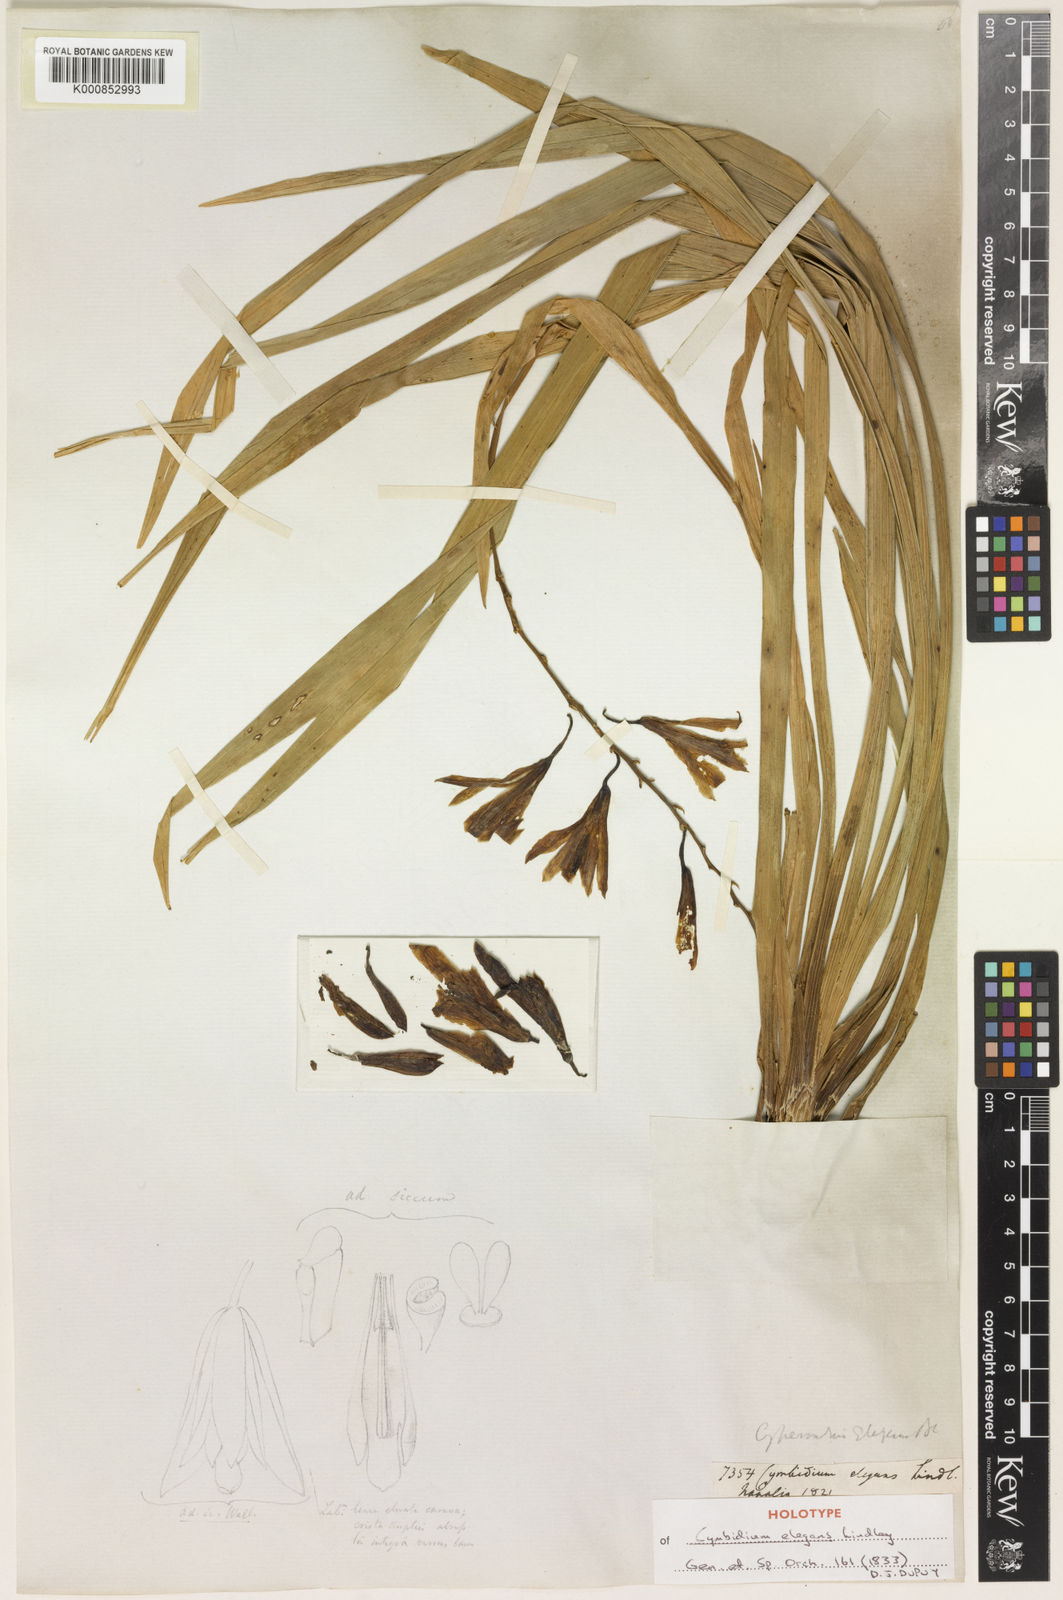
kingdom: Plantae
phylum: Tracheophyta
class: Liliopsida
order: Asparagales
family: Orchidaceae
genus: Cymbidium
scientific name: Cymbidium elegans
